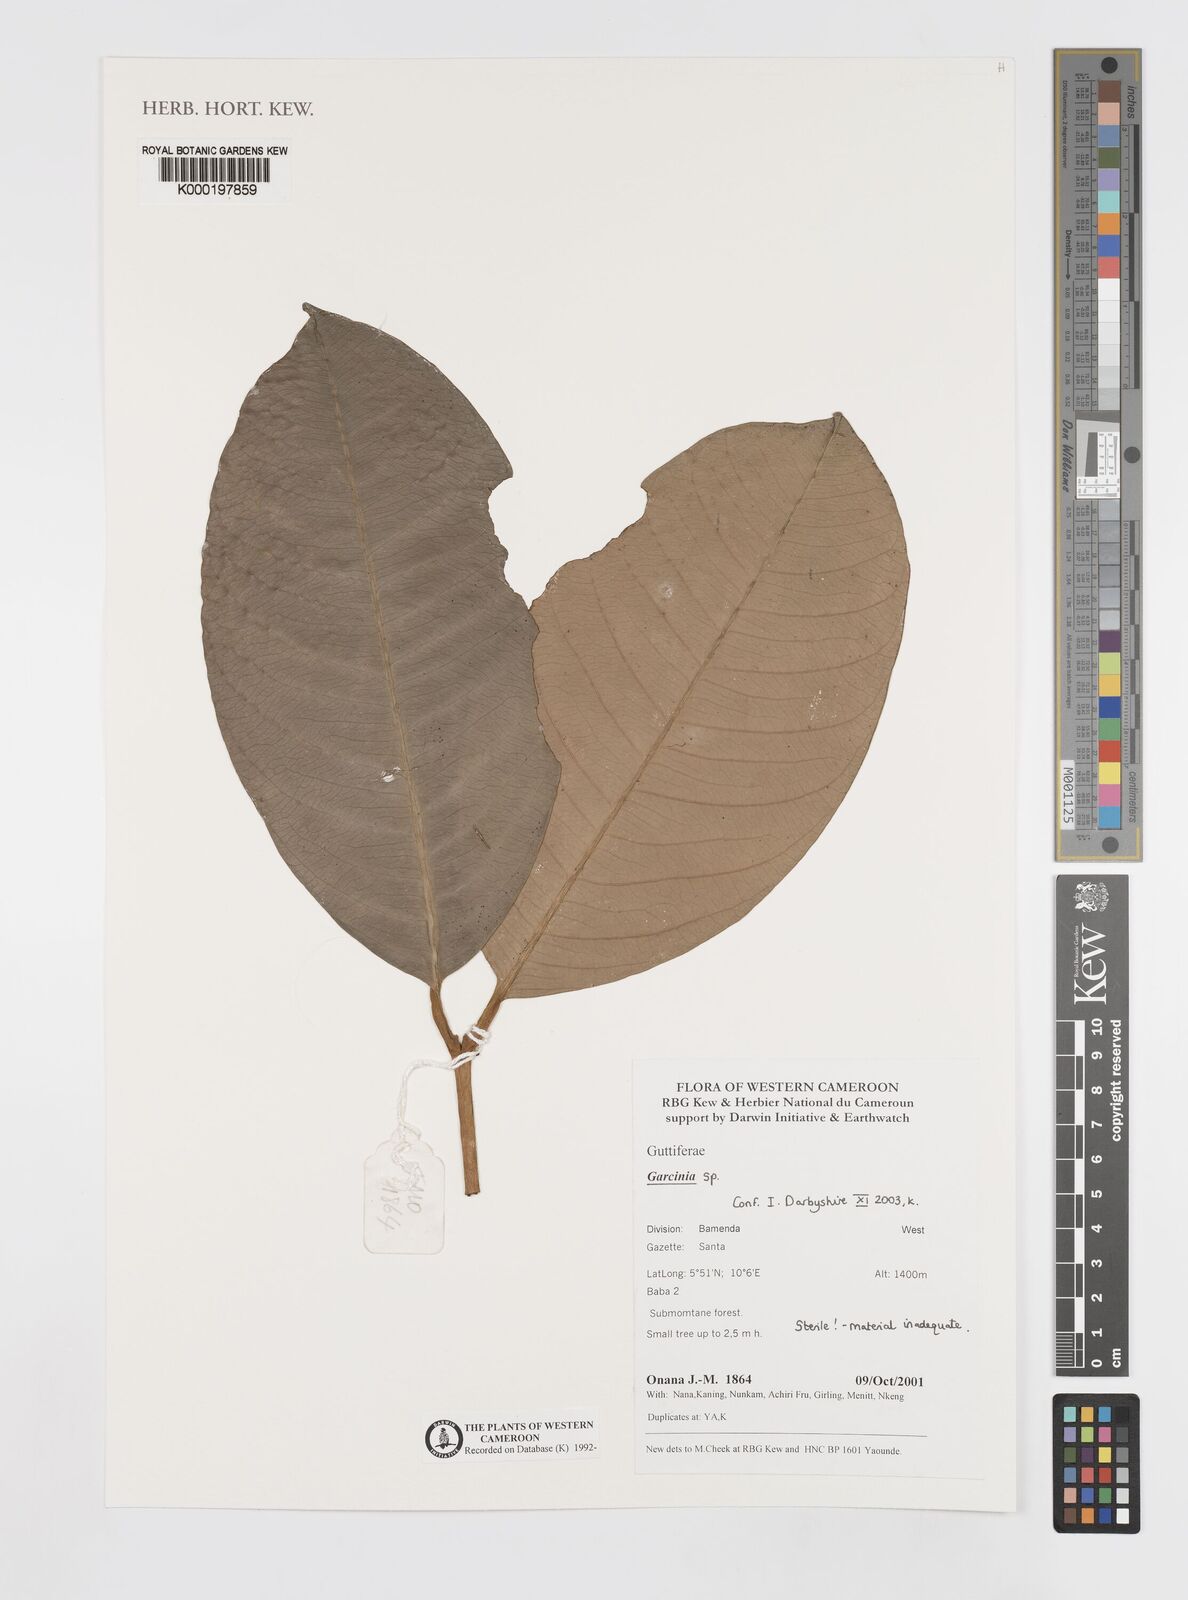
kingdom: Plantae
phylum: Tracheophyta
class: Magnoliopsida
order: Malpighiales
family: Clusiaceae
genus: Garcinia
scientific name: Garcinia
